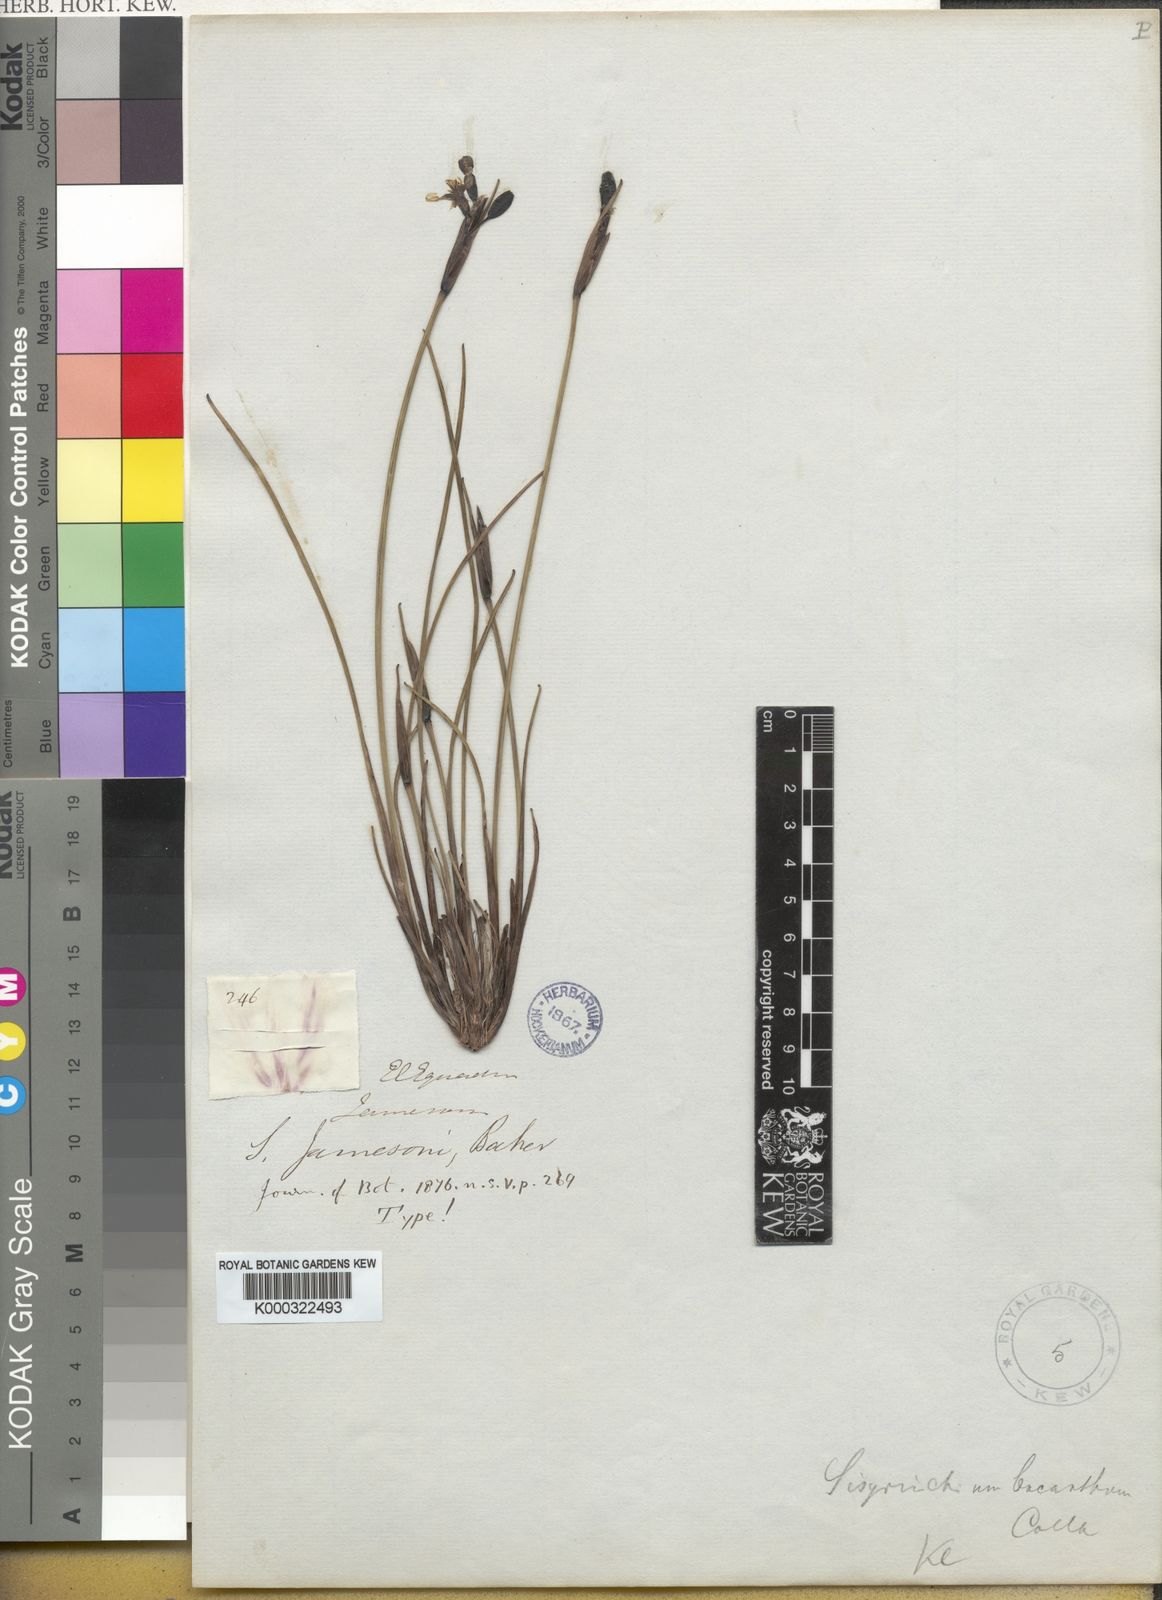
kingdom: Plantae
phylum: Tracheophyta
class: Liliopsida
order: Asparagales
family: Iridaceae
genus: Sisyrinchium
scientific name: Sisyrinchium jamesonii
